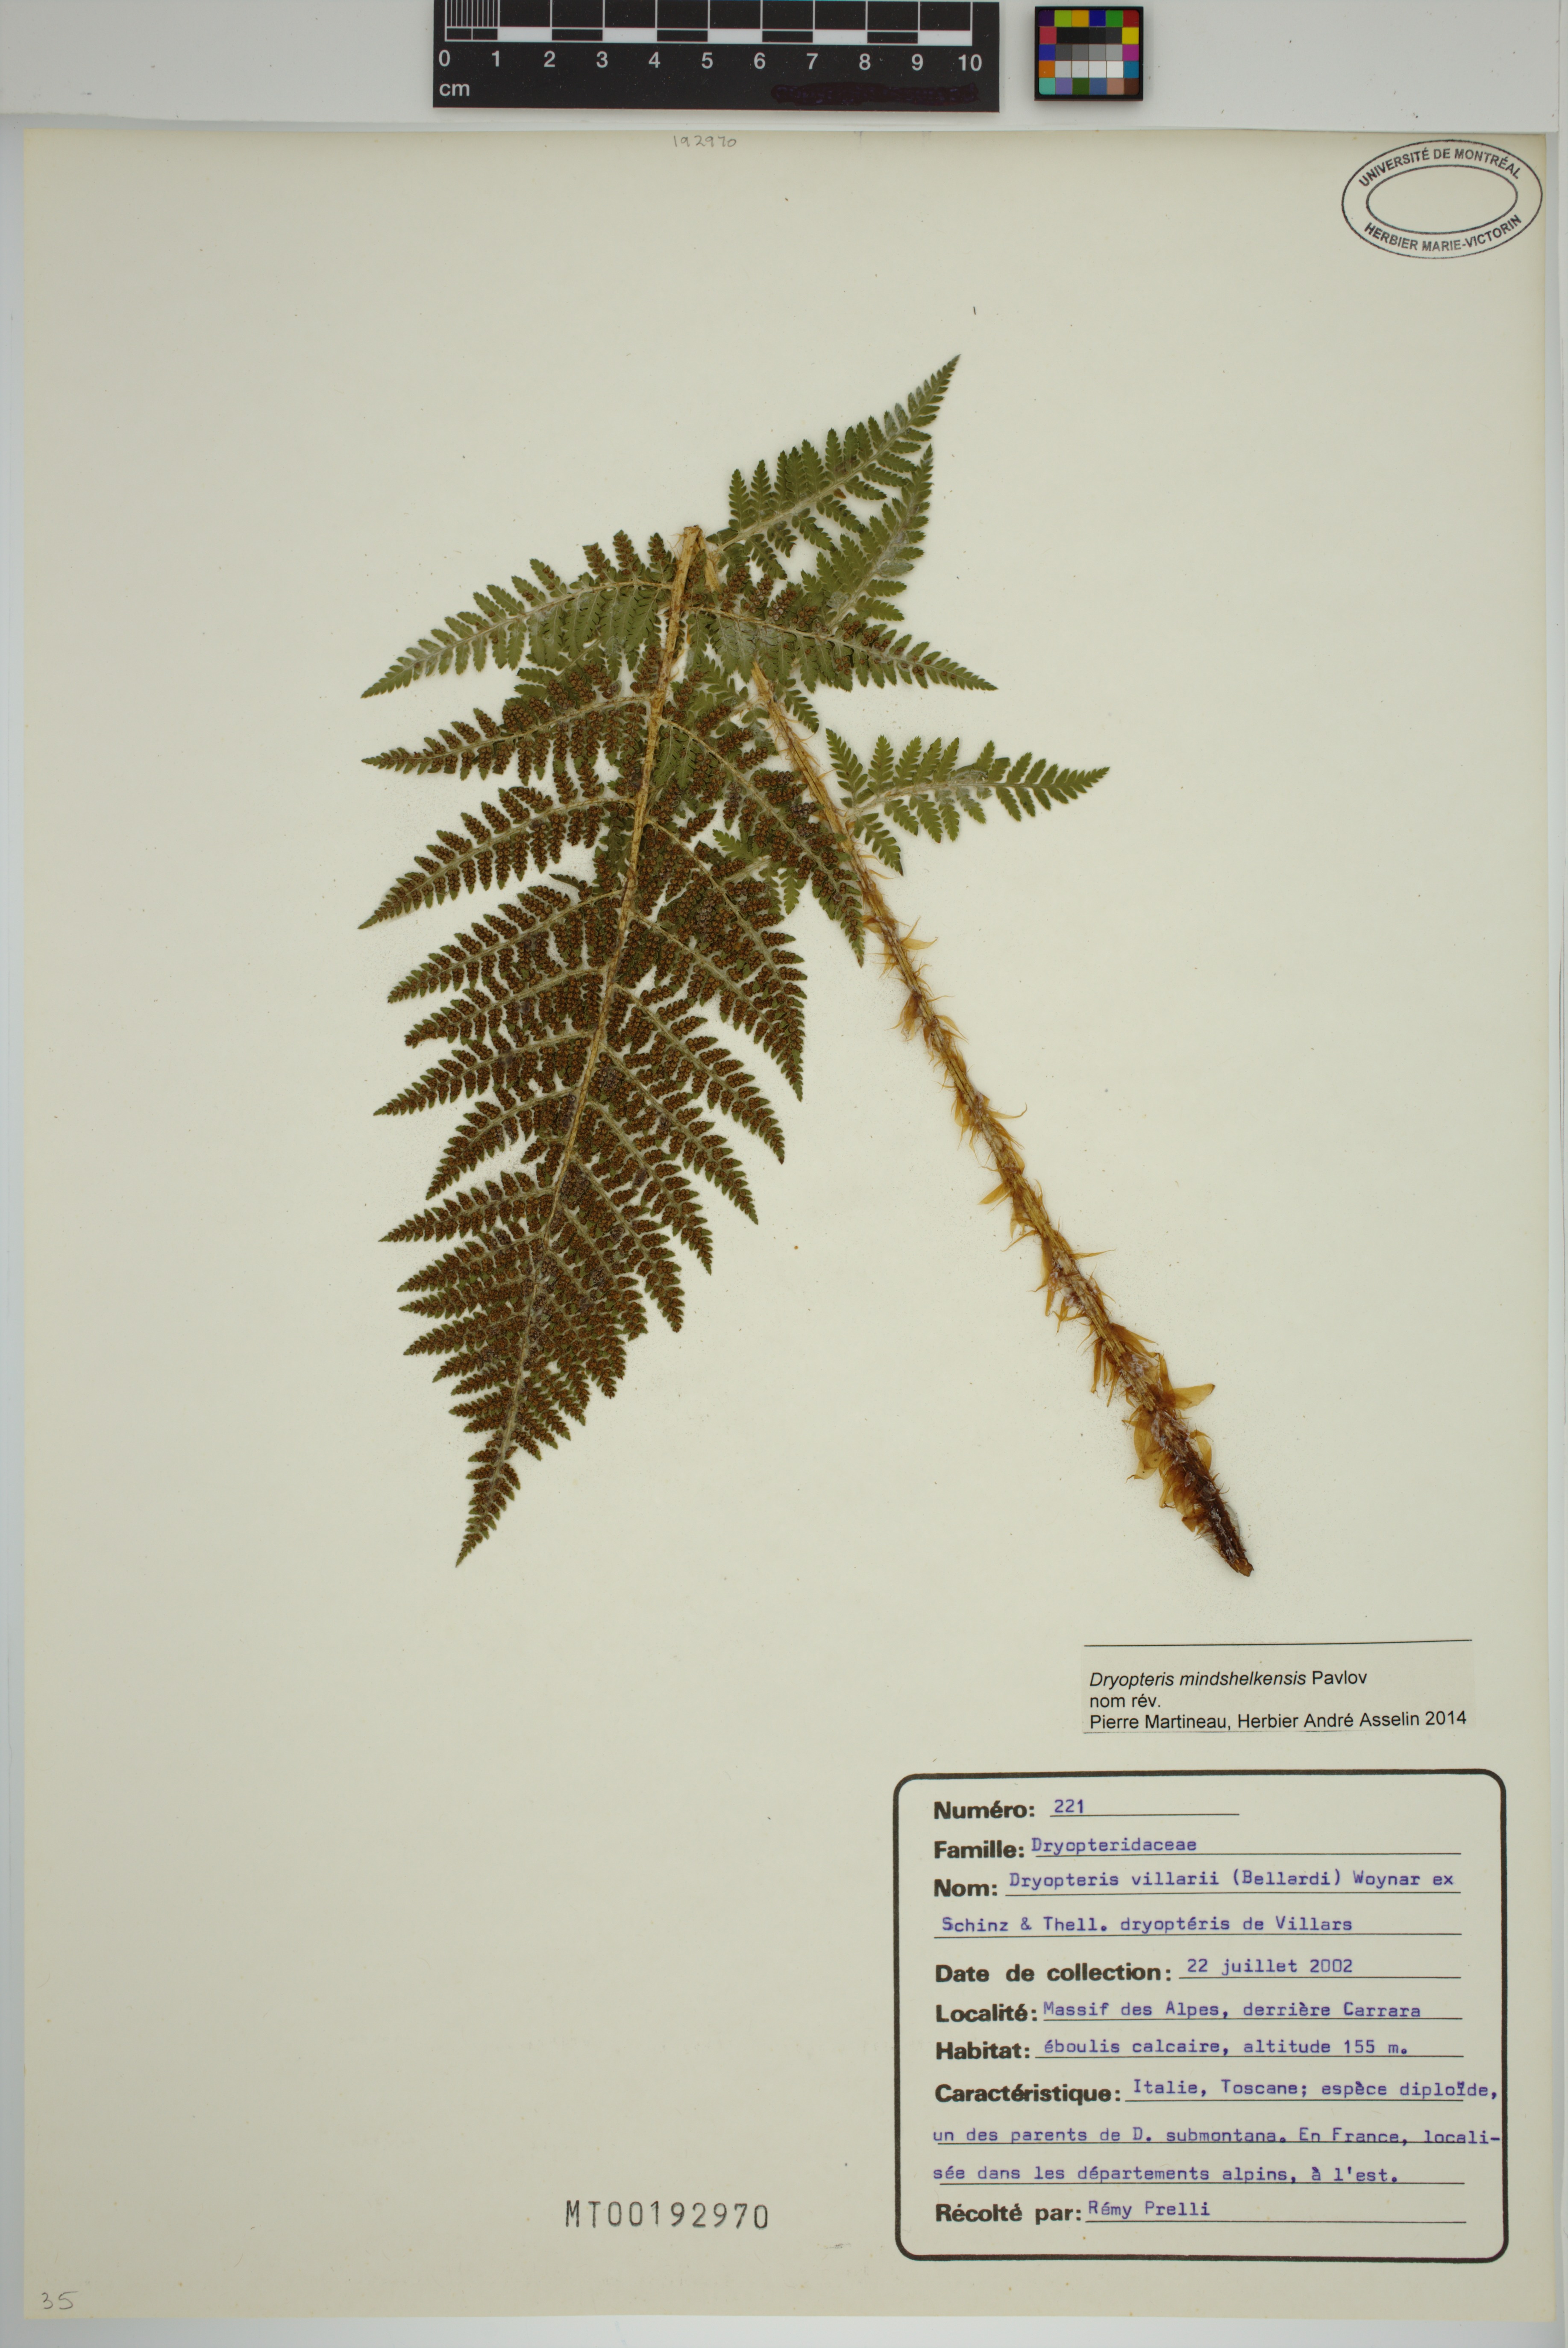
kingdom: Plantae
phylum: Tracheophyta
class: Polypodiopsida
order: Polypodiales
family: Dryopteridaceae
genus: Dryopteris
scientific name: Dryopteris mindshelkensis
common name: Limestone wood fern
